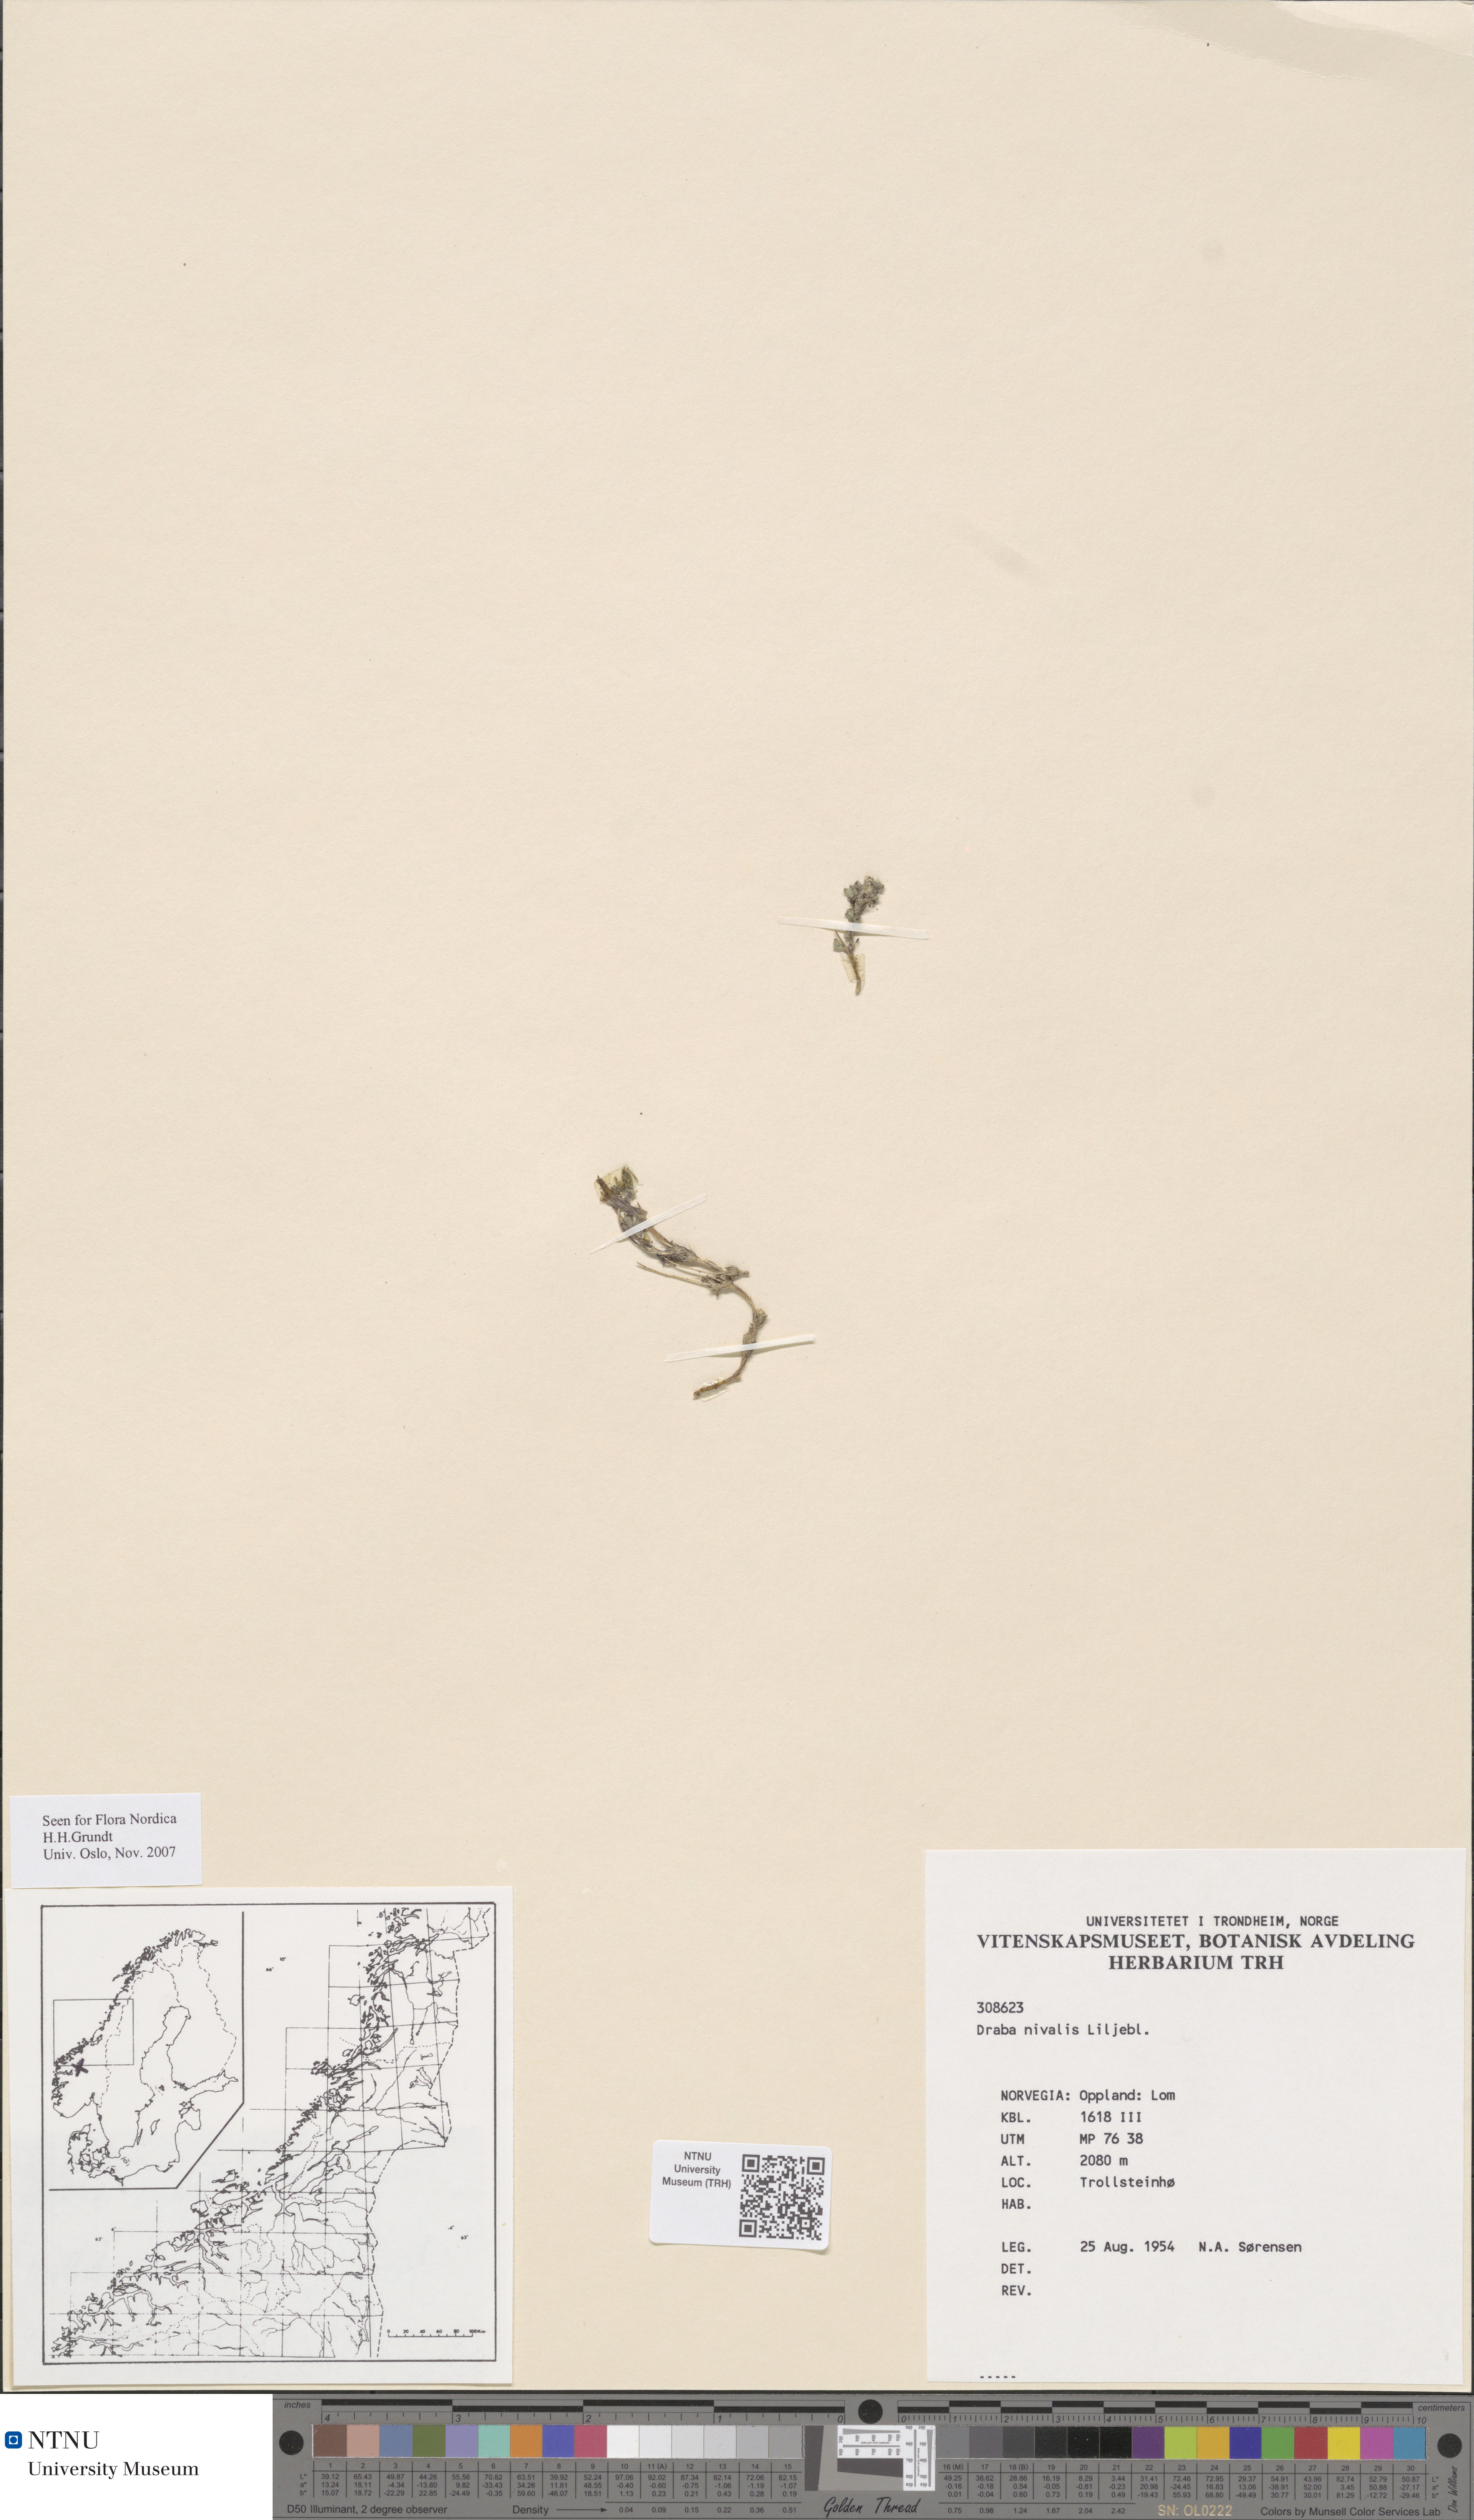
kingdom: Plantae
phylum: Tracheophyta
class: Magnoliopsida
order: Brassicales
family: Brassicaceae
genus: Draba
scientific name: Draba nivalis
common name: Snow draba
